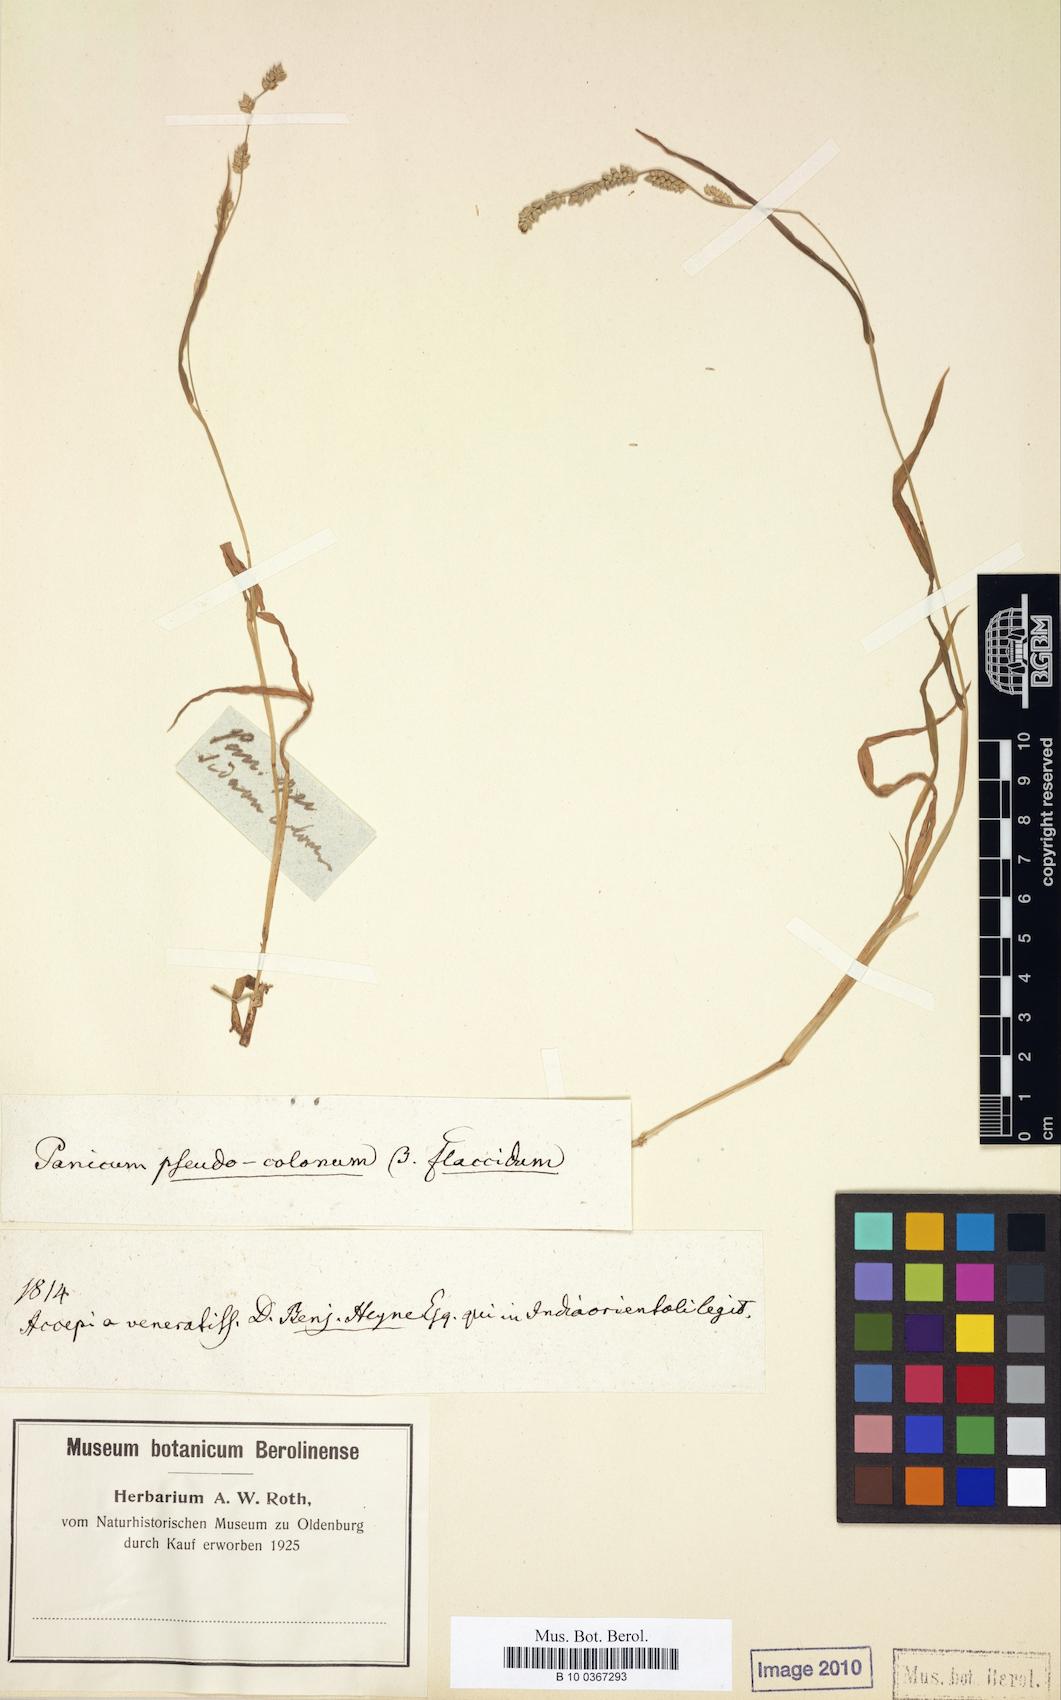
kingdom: Plantae
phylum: Tracheophyta
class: Liliopsida
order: Poales
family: Poaceae
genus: Echinochloa
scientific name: Echinochloa colonum
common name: Jungle rice
